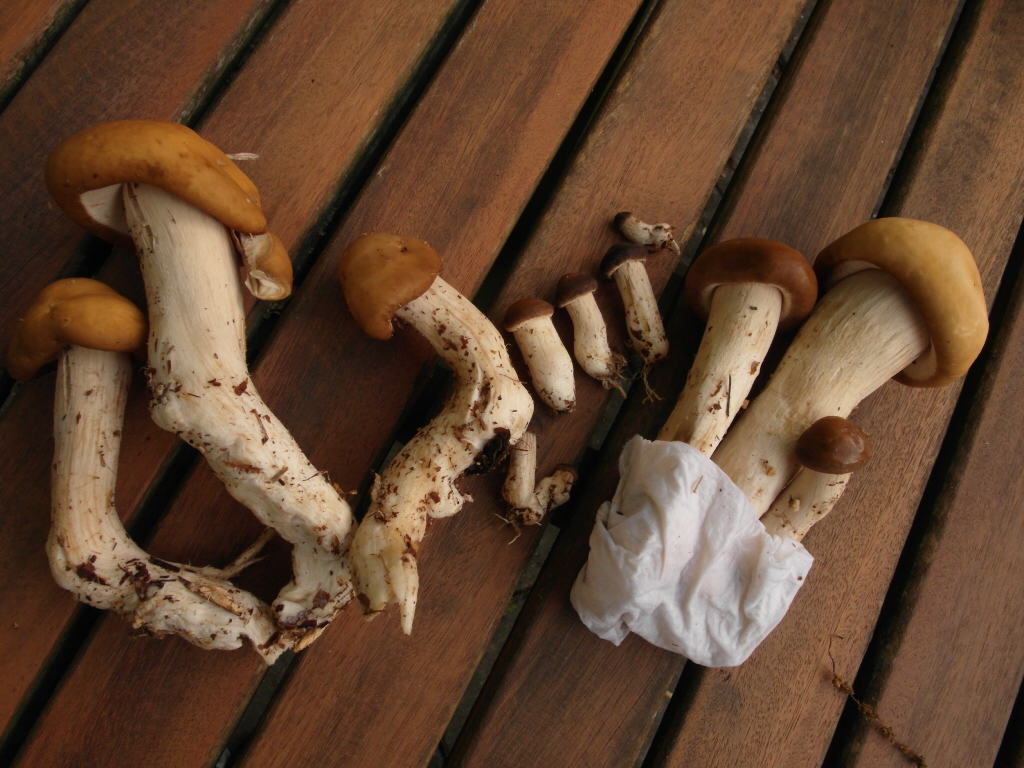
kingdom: Fungi
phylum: Basidiomycota
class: Agaricomycetes
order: Agaricales
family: Strophariaceae
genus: Agrocybe
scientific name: Agrocybe praecox
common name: tidlig agerhat
